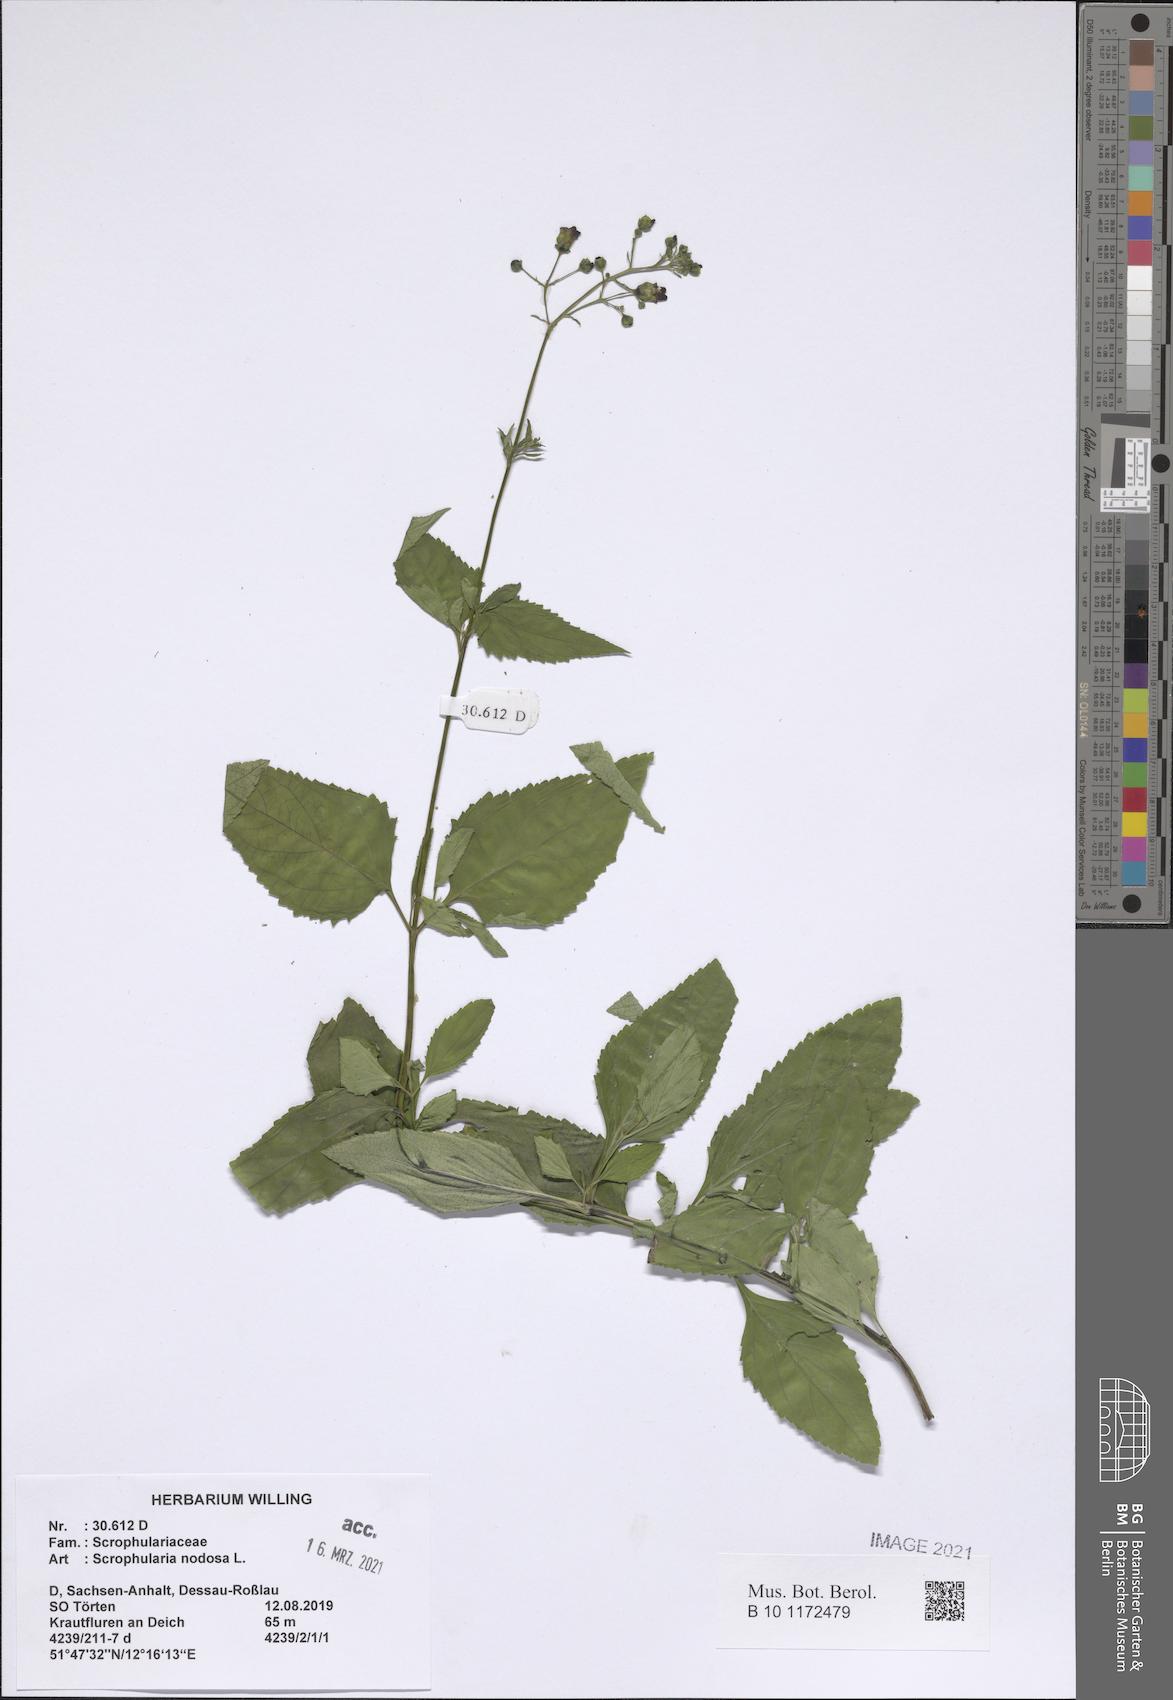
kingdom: Plantae
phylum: Tracheophyta
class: Magnoliopsida
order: Lamiales
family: Scrophulariaceae
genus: Scrophularia
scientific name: Scrophularia nodosa
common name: Common figwort
